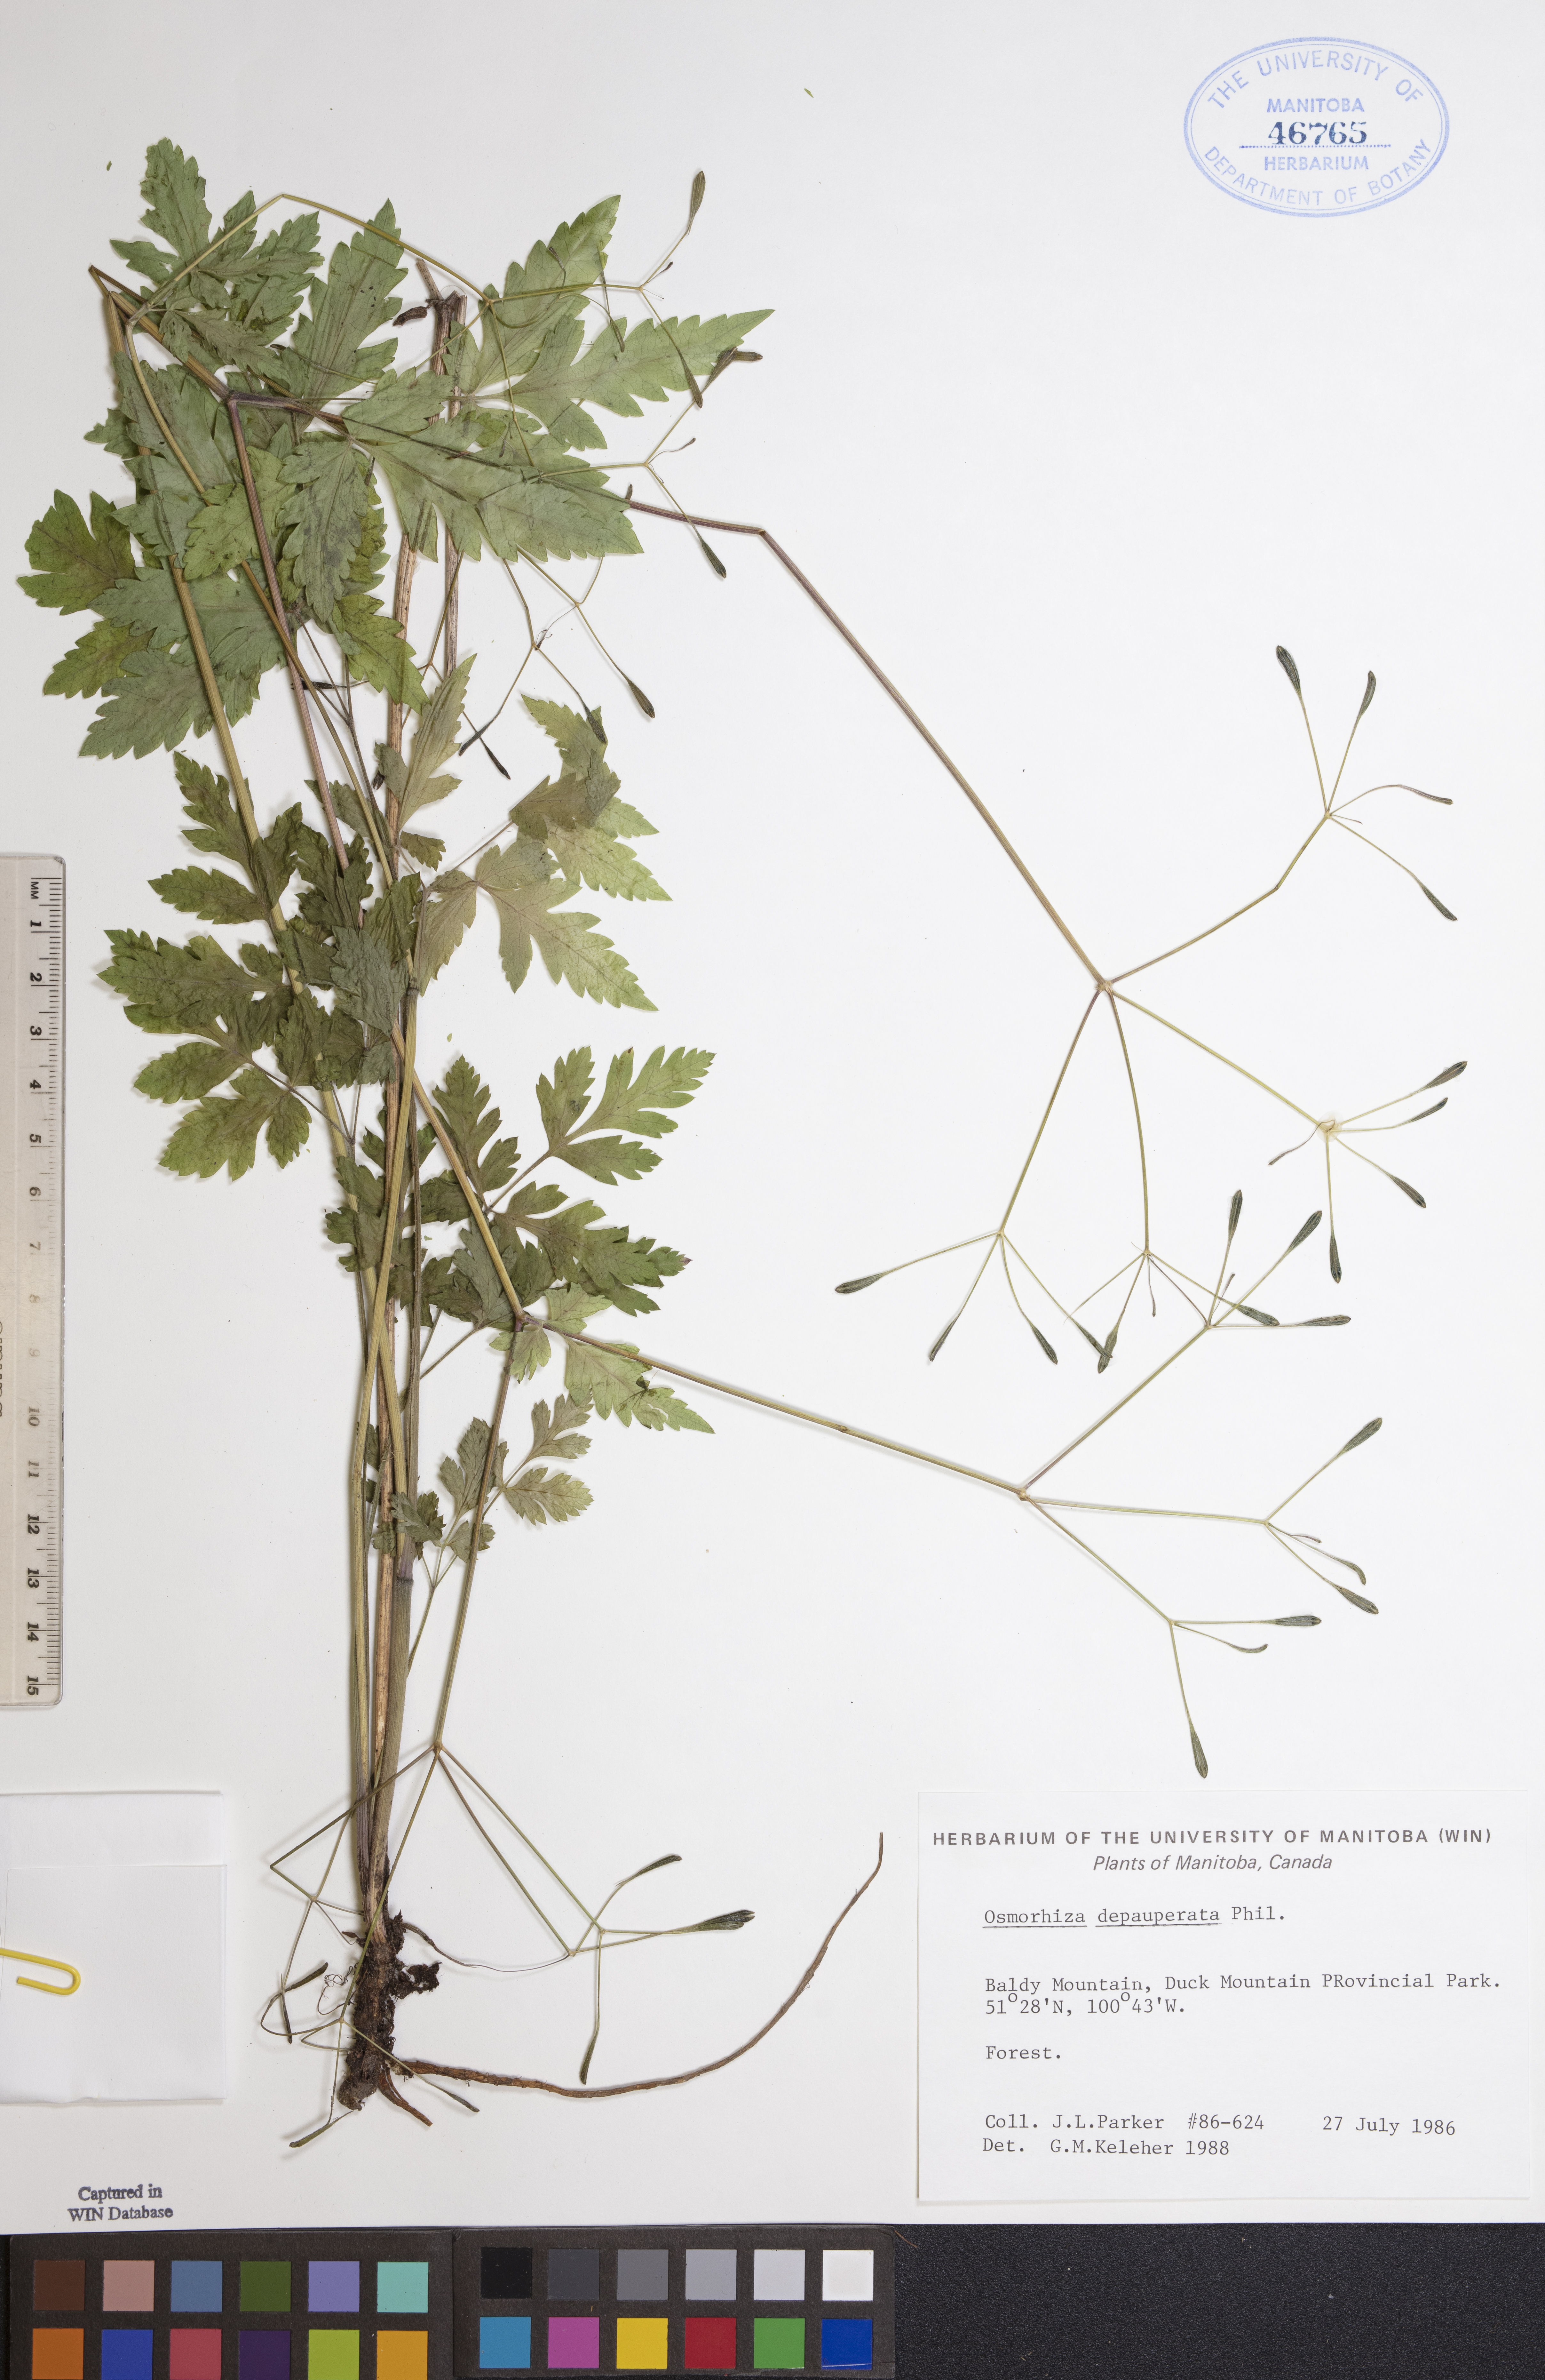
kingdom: Plantae
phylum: Tracheophyta
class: Magnoliopsida
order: Apiales
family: Apiaceae
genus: Osmorhiza
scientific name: Osmorhiza depauperata
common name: Blunt sweet cicely
